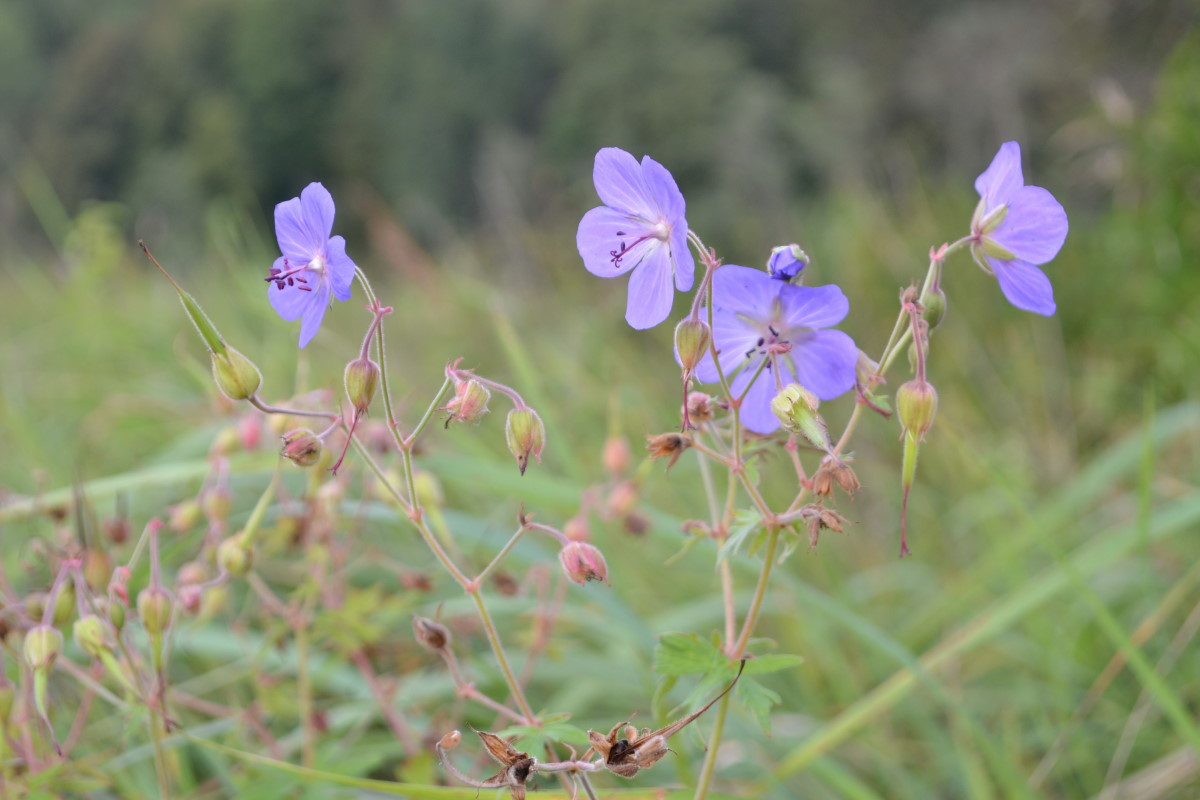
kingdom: Plantae
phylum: Tracheophyta
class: Magnoliopsida
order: Geraniales
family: Geraniaceae
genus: Geranium
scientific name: Geranium pratense
